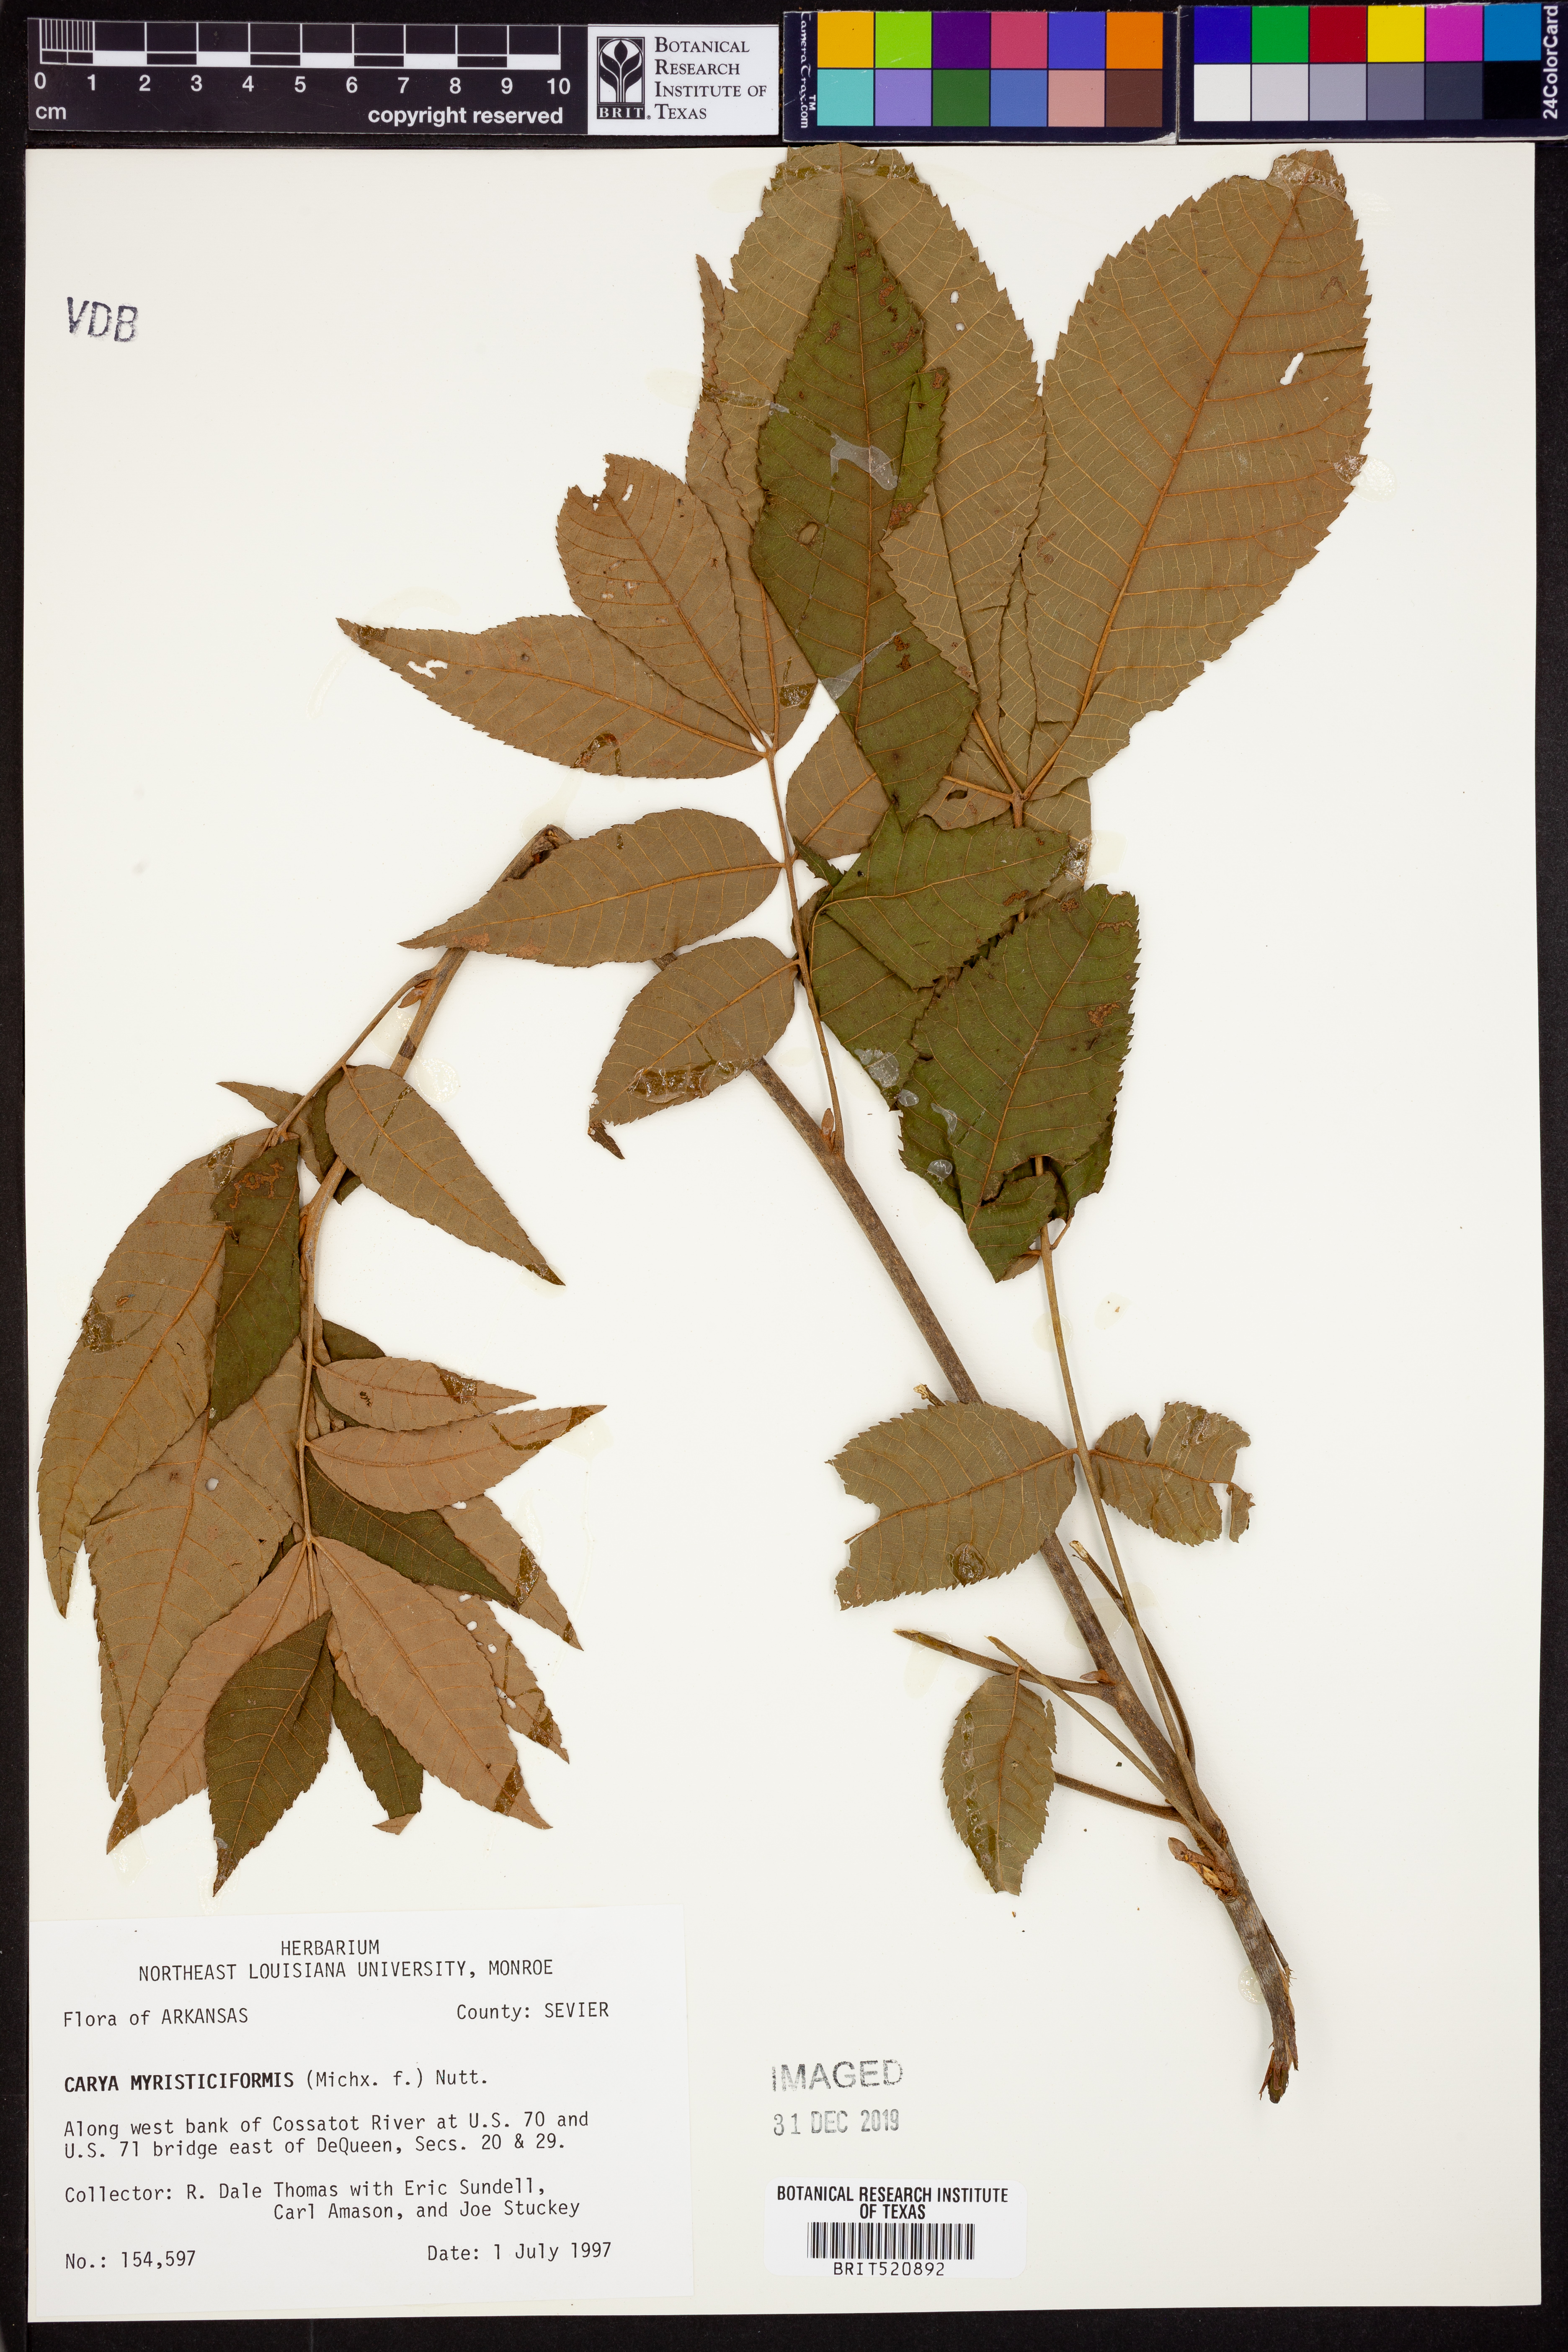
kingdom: Plantae
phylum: Tracheophyta
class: Magnoliopsida
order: Fagales
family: Juglandaceae
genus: Carya
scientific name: Carya myristiciformis
